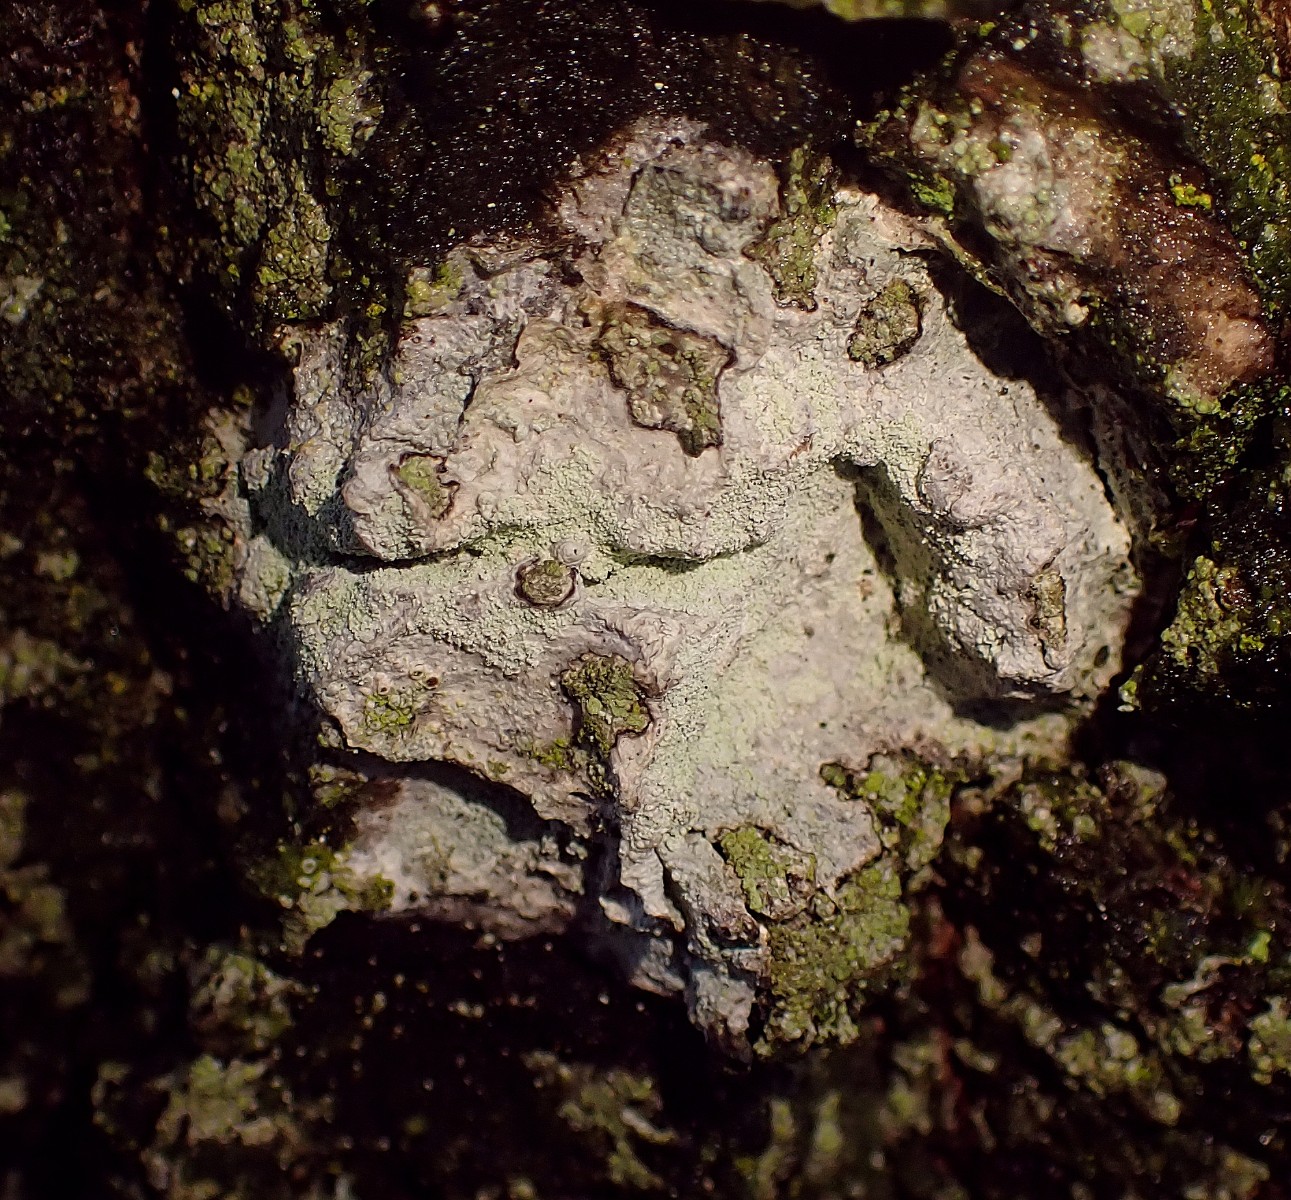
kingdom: Fungi
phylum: Ascomycota
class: Lecanoromycetes
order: Ostropales
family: Phlyctidaceae
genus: Phlyctis
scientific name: Phlyctis argena
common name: almindelig sølvlav
